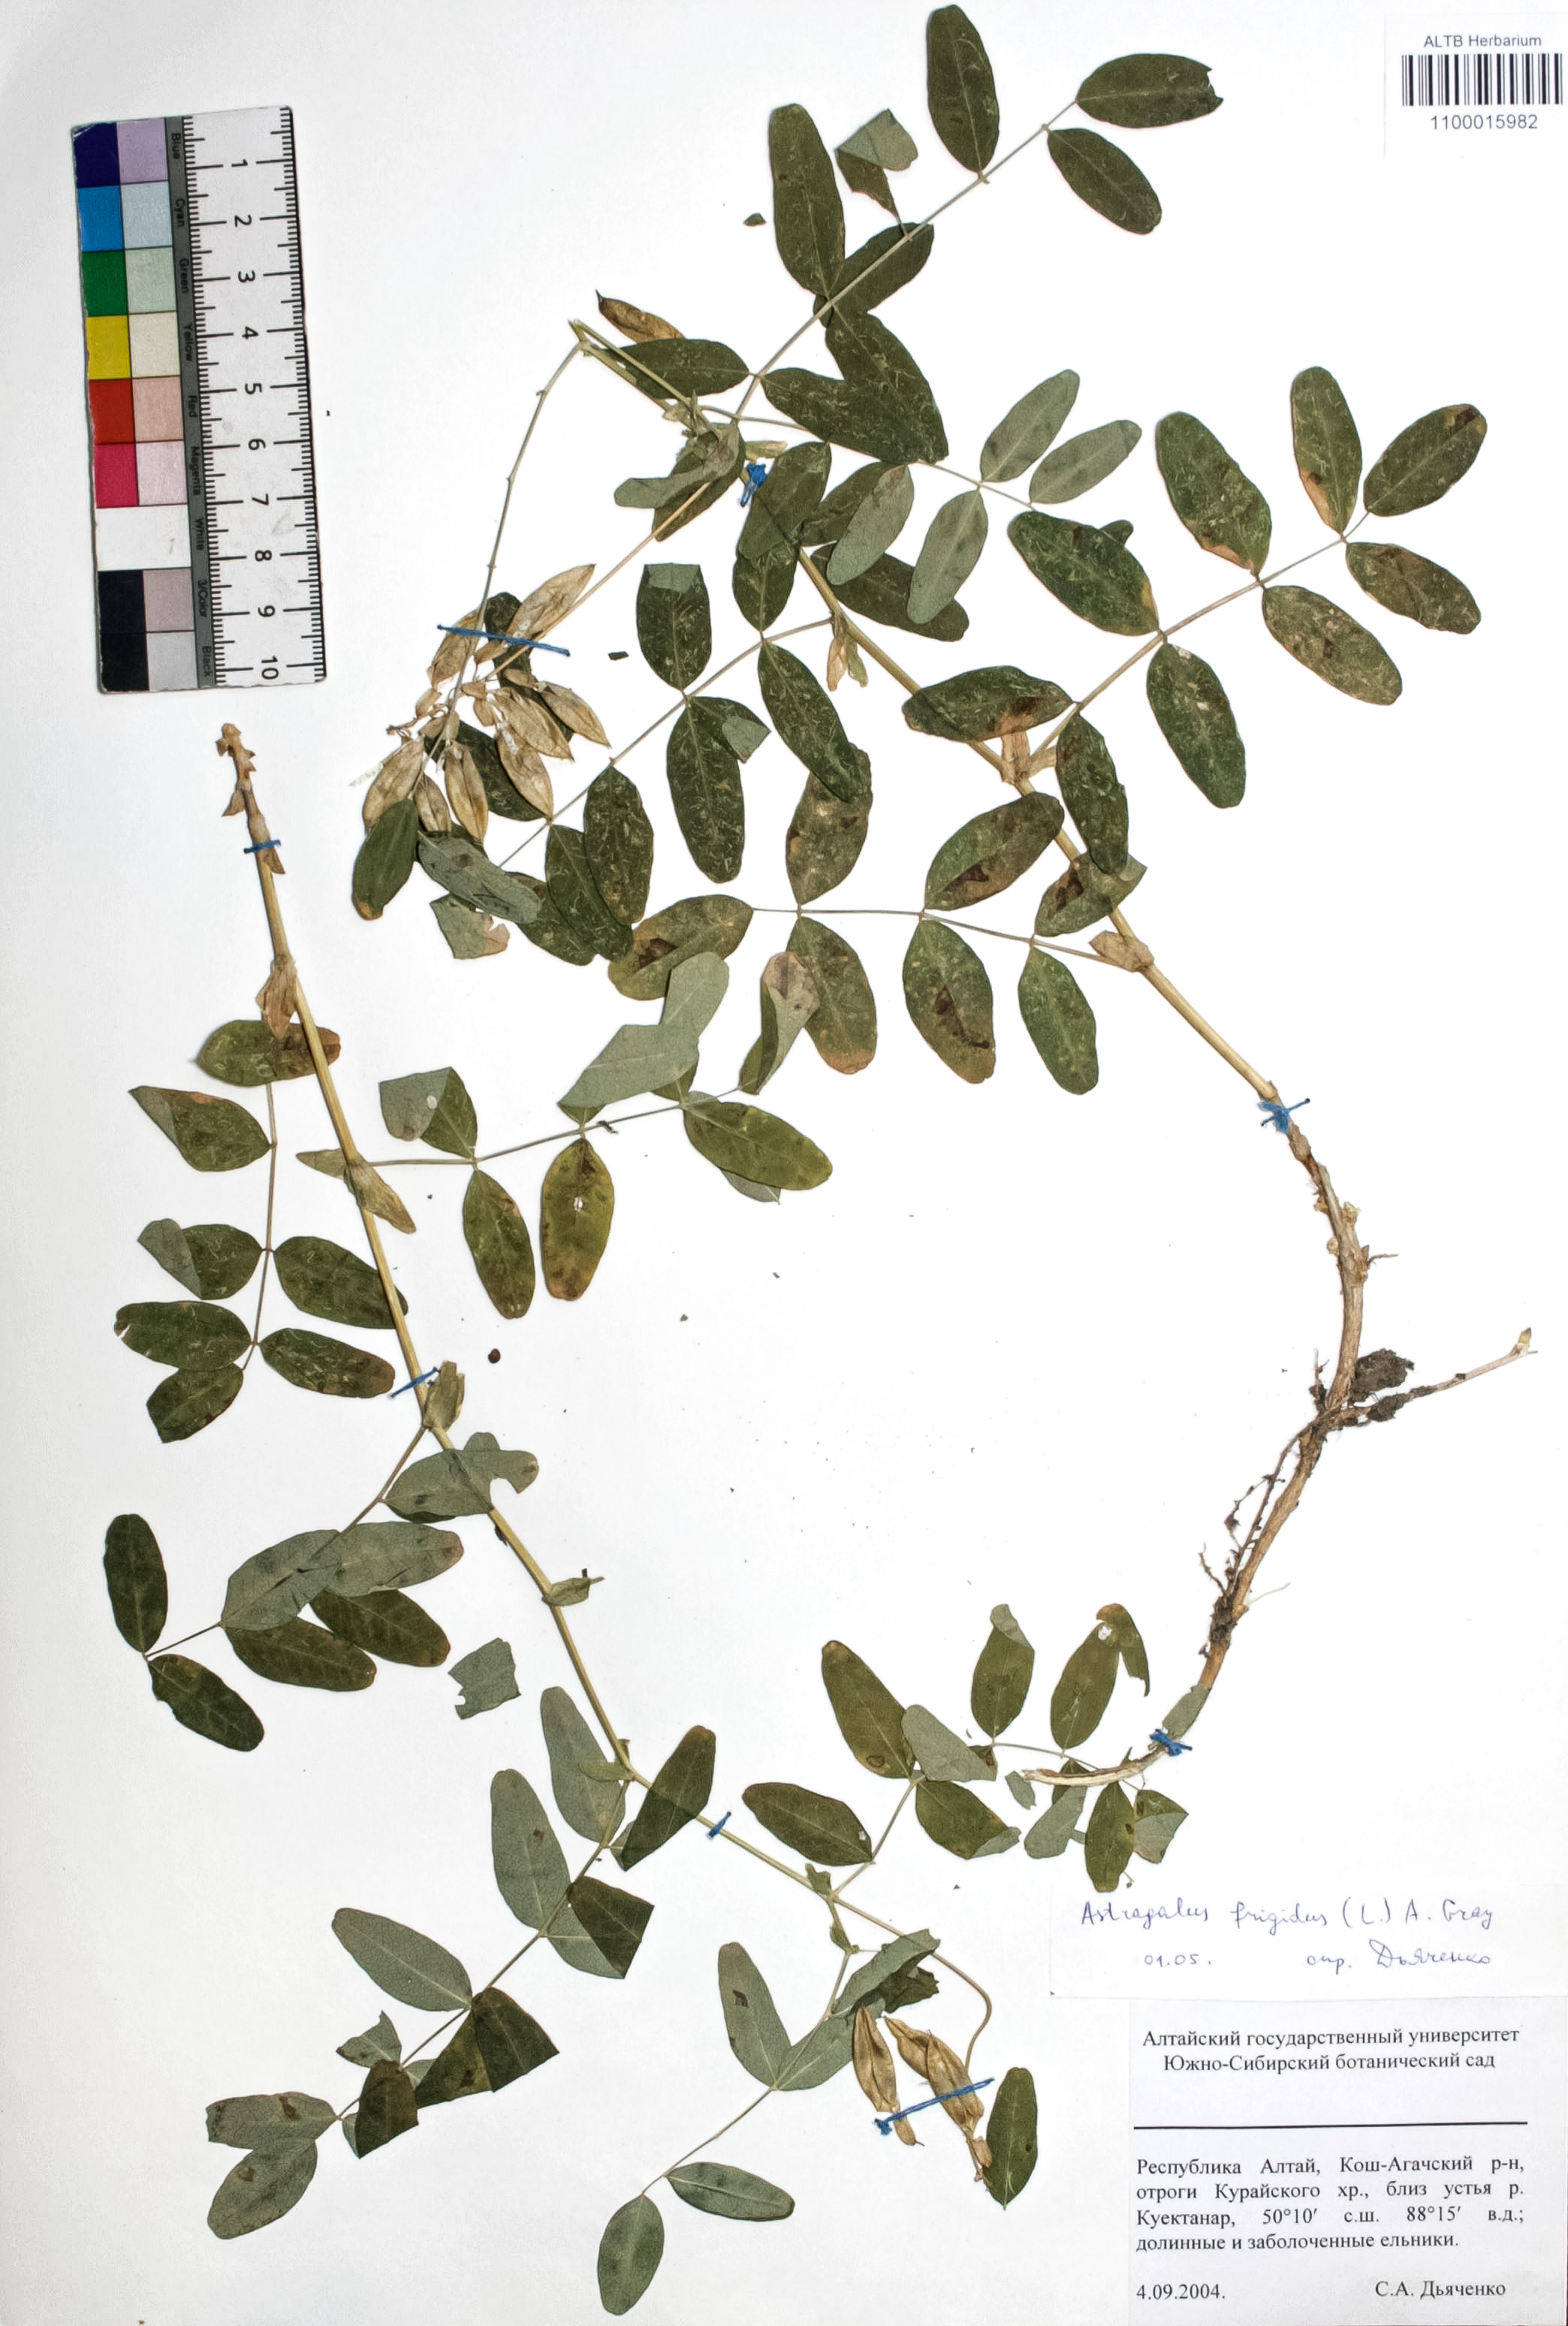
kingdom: Plantae
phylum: Tracheophyta
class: Magnoliopsida
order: Fabales
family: Fabaceae
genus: Astragalus
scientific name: Astragalus frigidus
